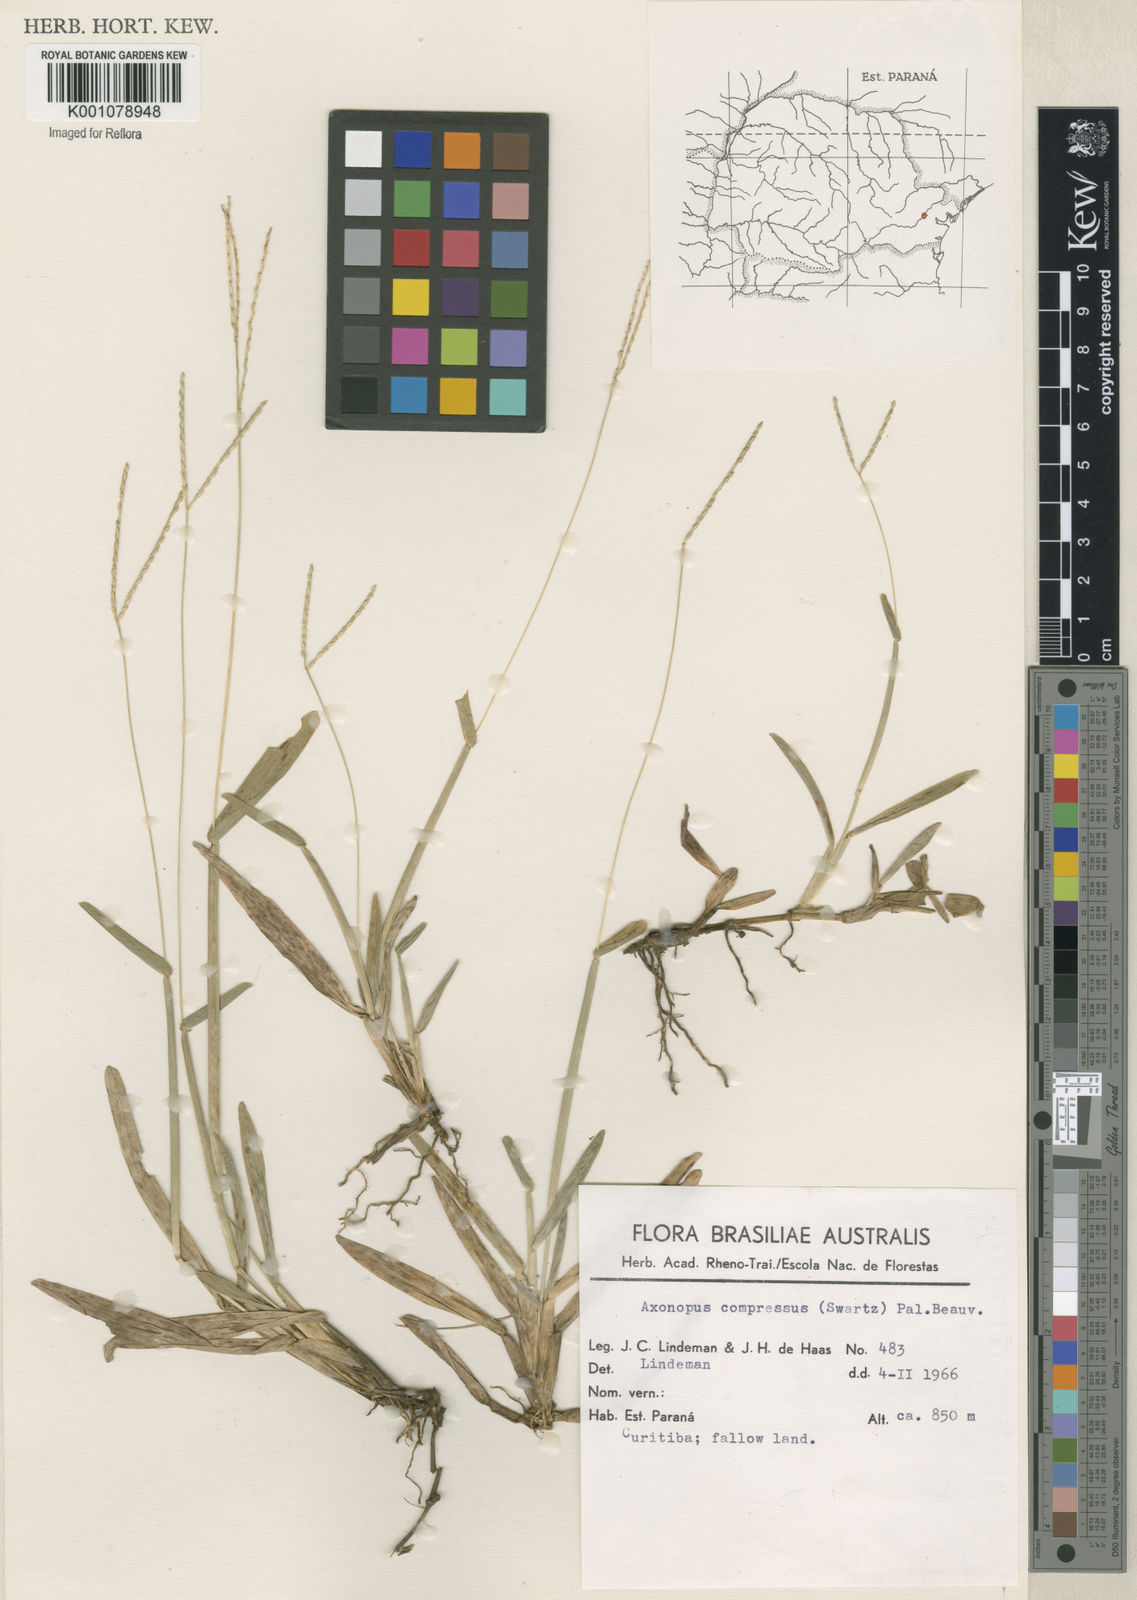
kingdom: Plantae
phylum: Tracheophyta
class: Liliopsida
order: Poales
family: Poaceae
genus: Axonopus
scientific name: Axonopus compressus
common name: American carpet grass
